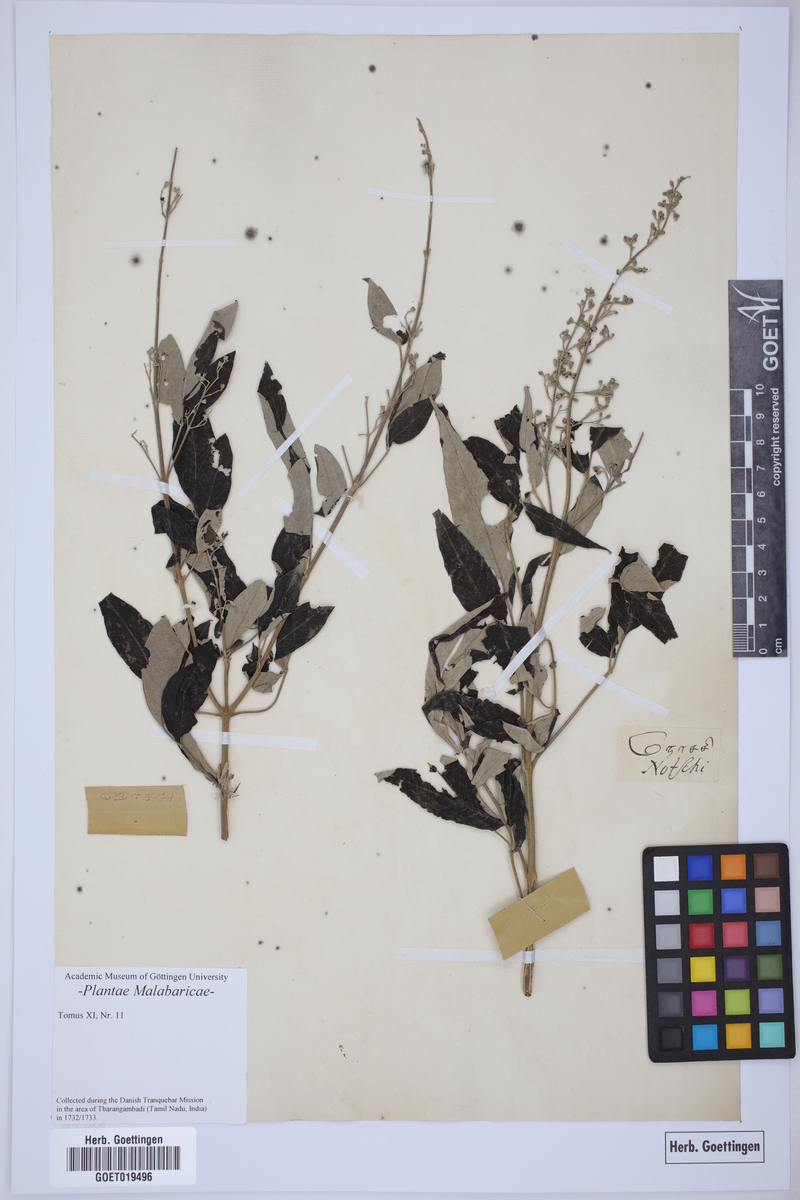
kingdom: Plantae
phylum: Tracheophyta
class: Magnoliopsida
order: Lamiales
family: Lamiaceae
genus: Vitex
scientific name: Vitex negundo
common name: Chinese chastetree
